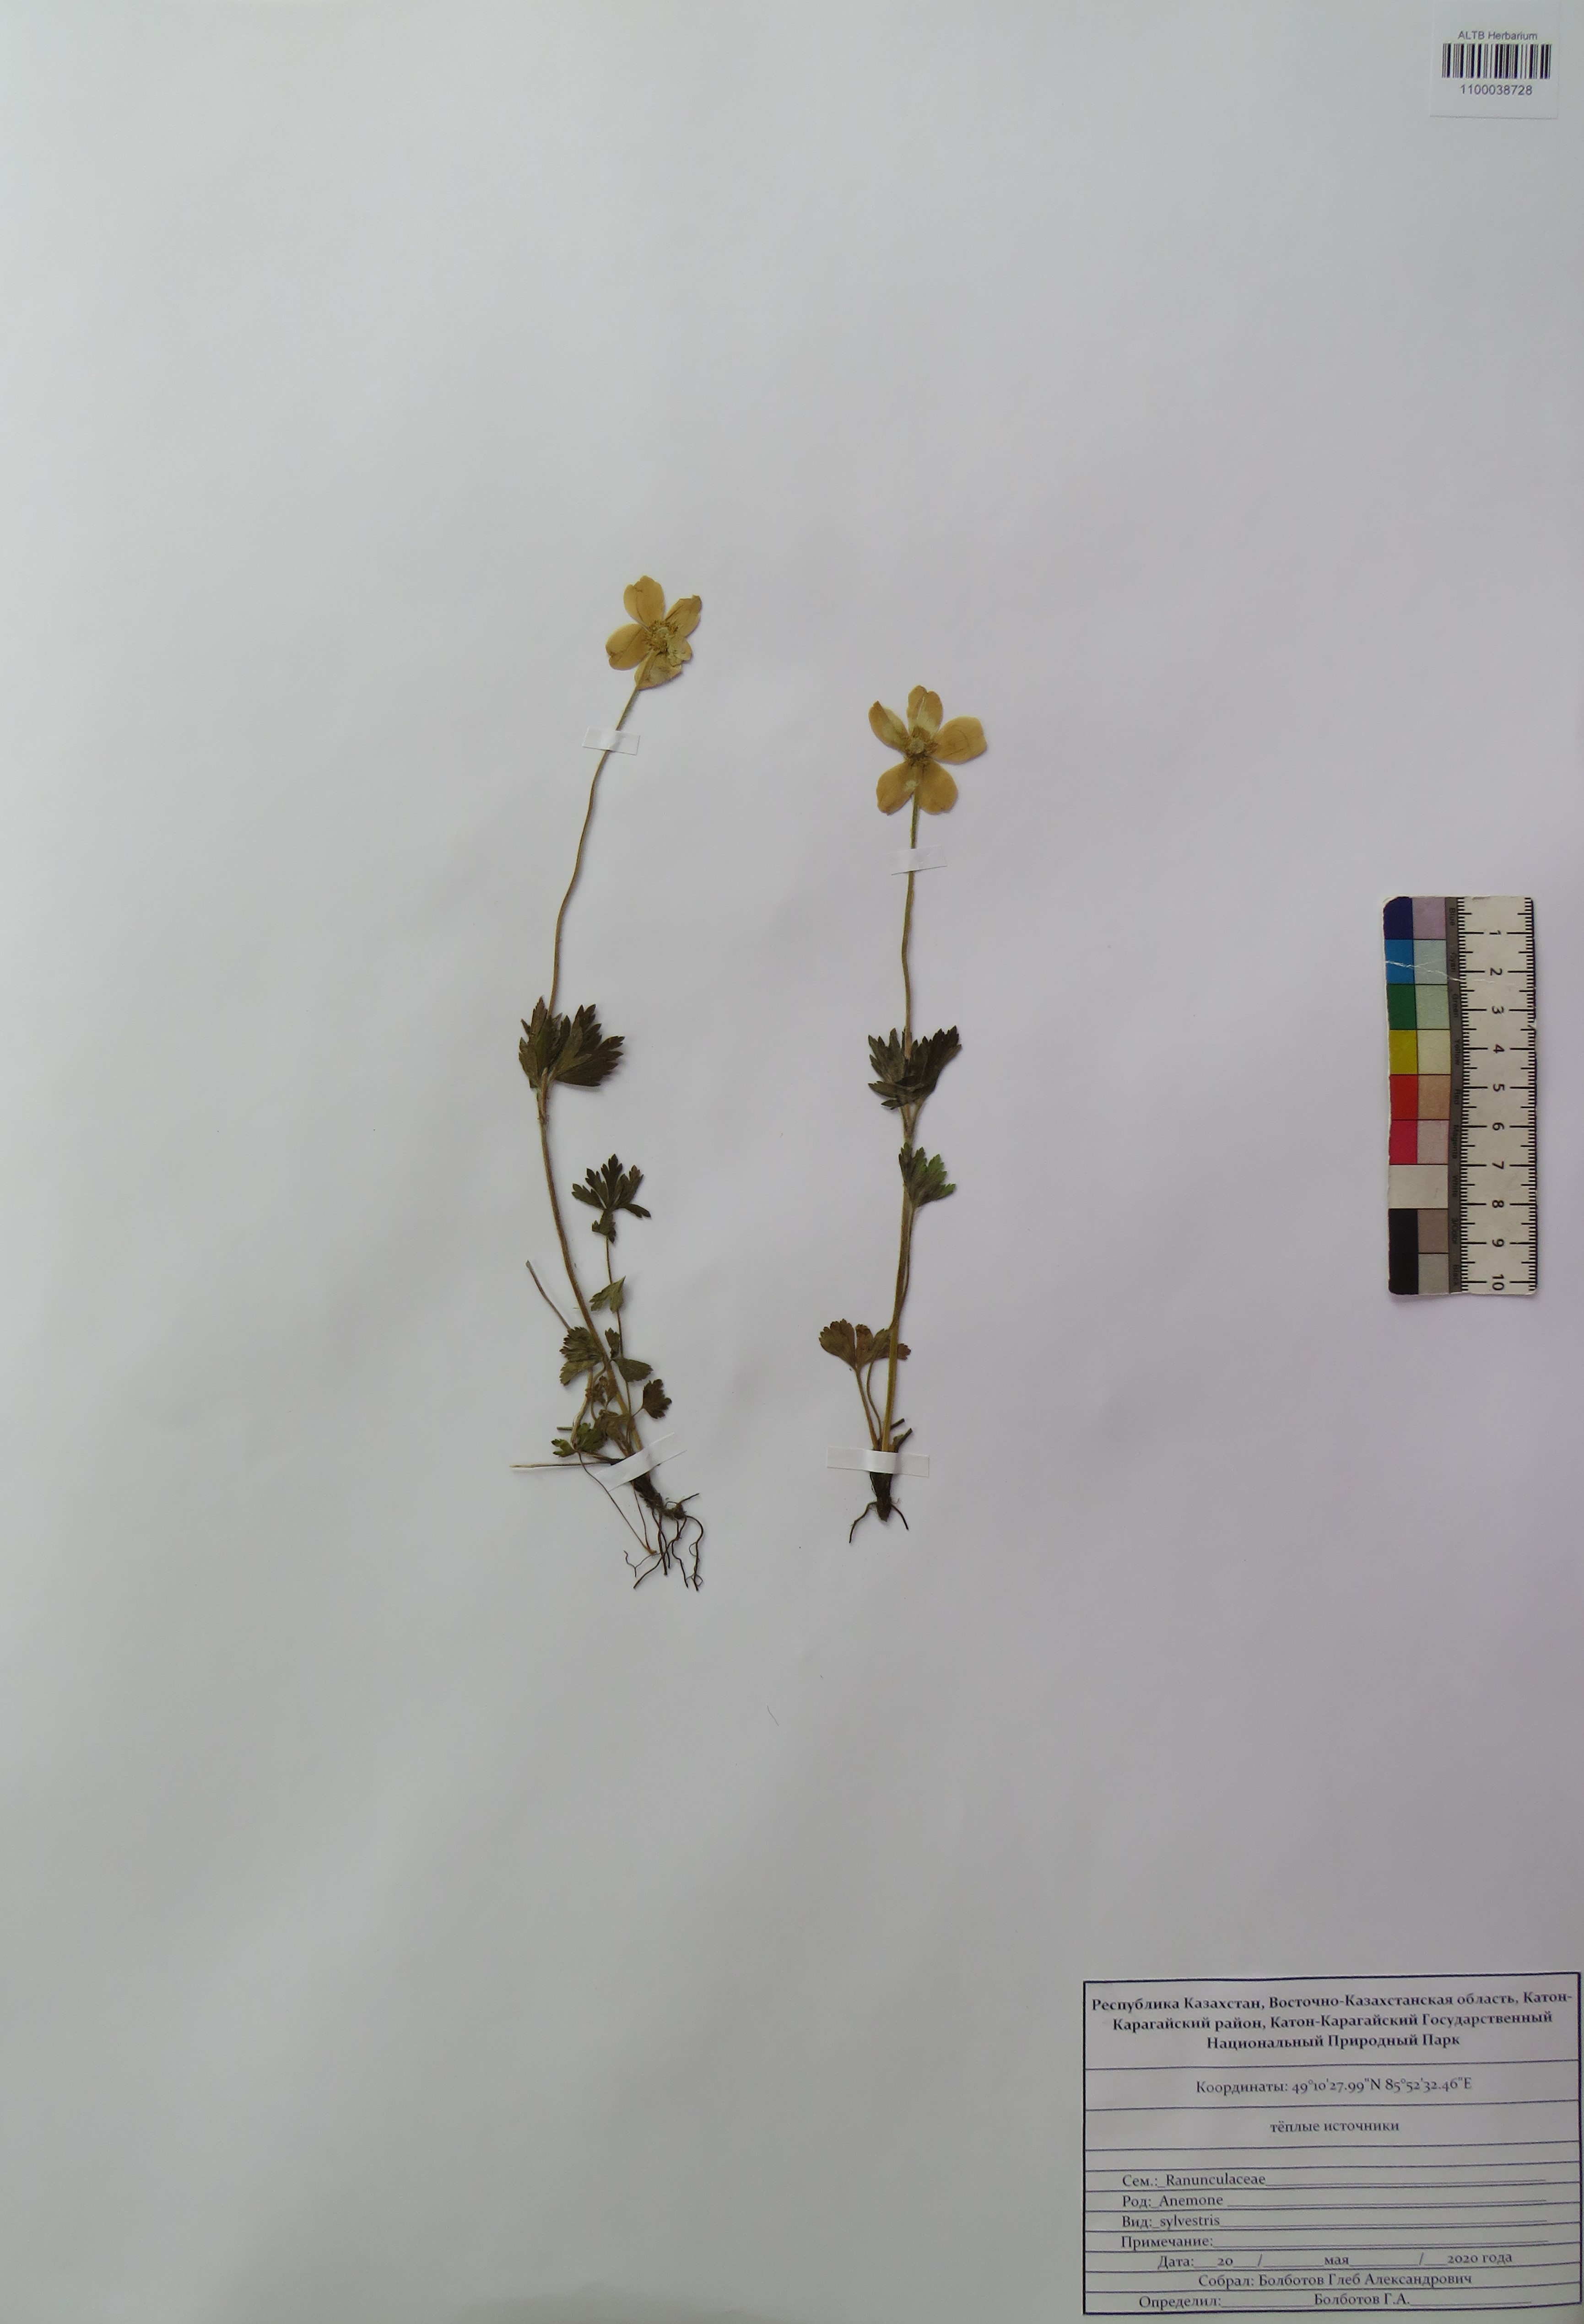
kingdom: Plantae
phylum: Tracheophyta
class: Magnoliopsida
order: Ranunculales
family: Ranunculaceae
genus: Anemone
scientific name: Anemone sylvestris
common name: Snowdrop anemone
